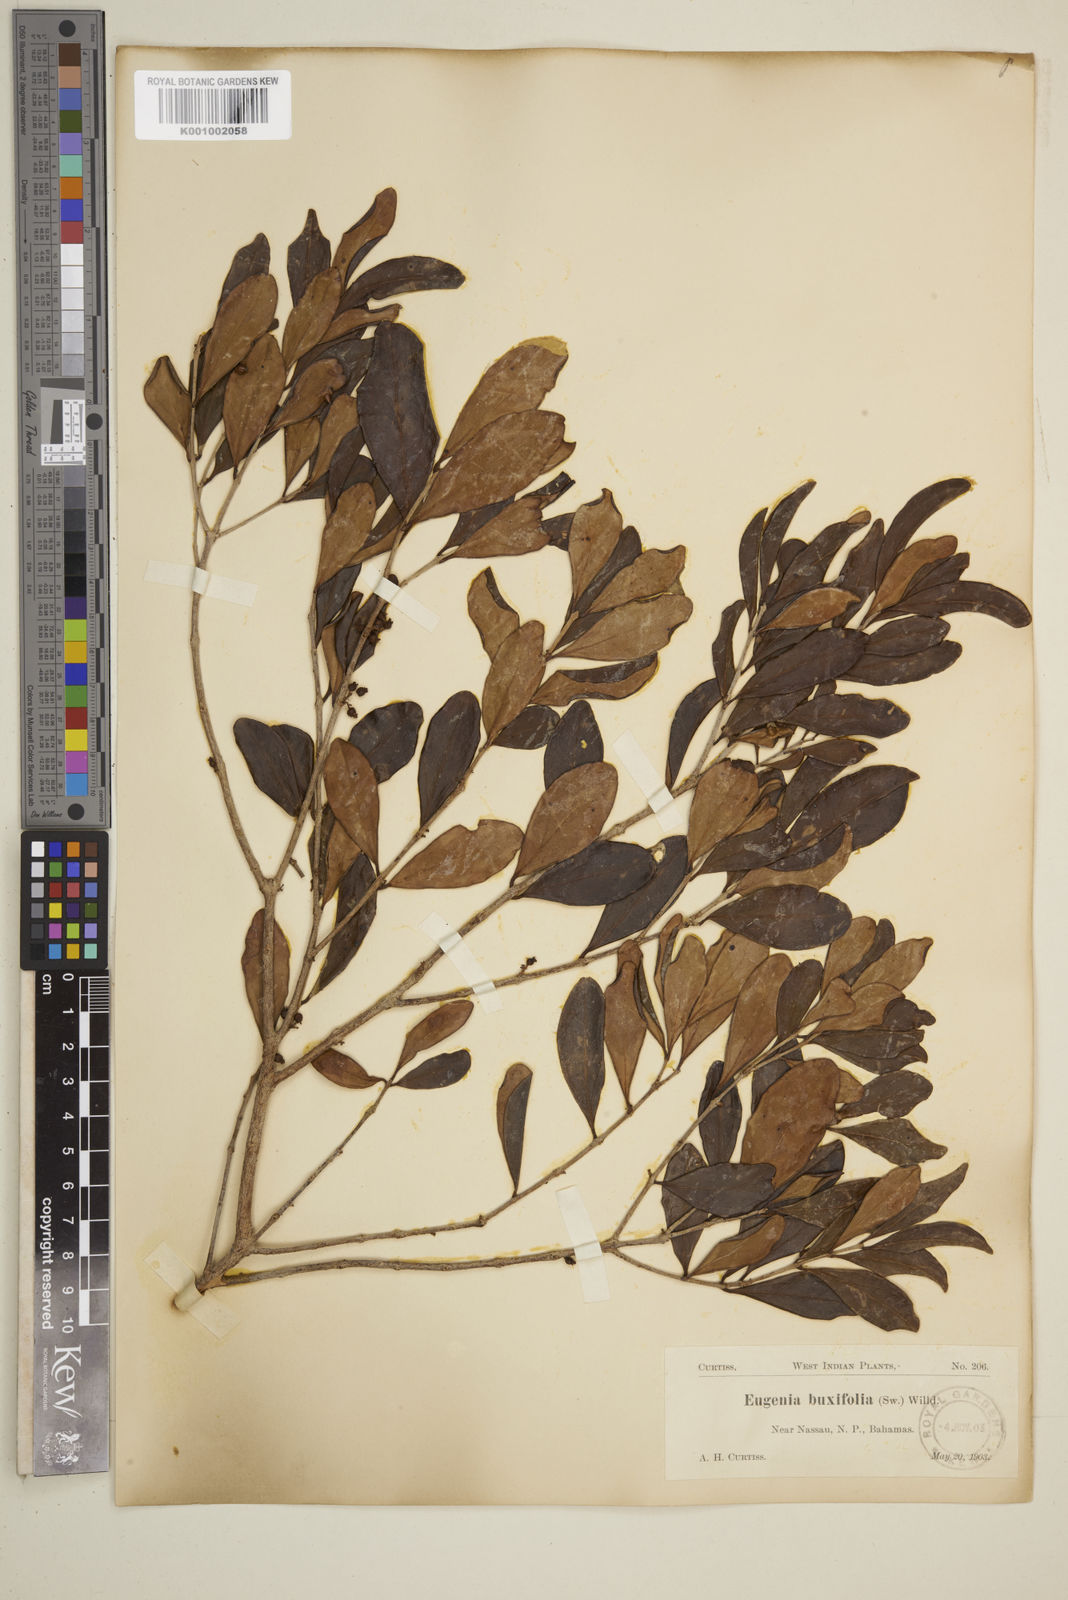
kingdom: Plantae
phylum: Tracheophyta
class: Magnoliopsida
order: Myrtales
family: Myrtaceae
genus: Eugenia
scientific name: Eugenia buxifolia
